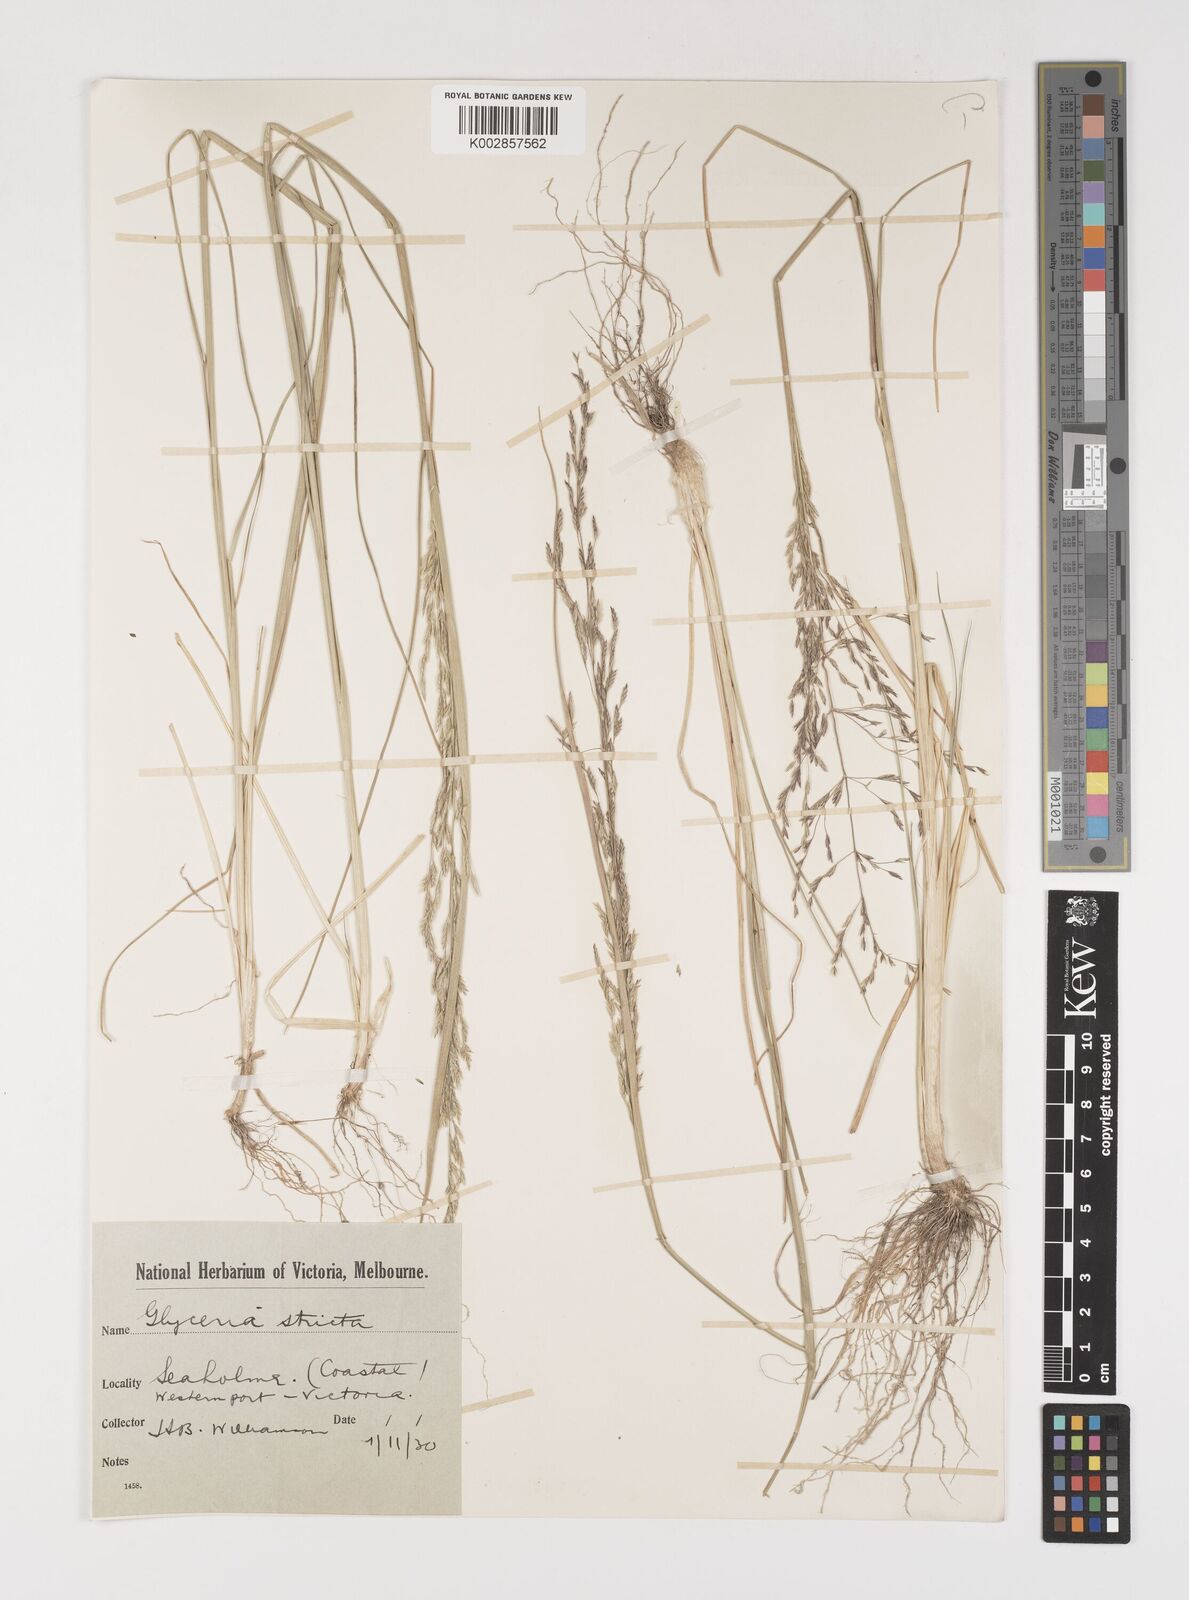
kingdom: Plantae
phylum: Tracheophyta
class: Liliopsida
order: Poales
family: Poaceae
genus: Puccinellia
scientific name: Puccinellia stricta
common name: Australian saltmarsh grass
